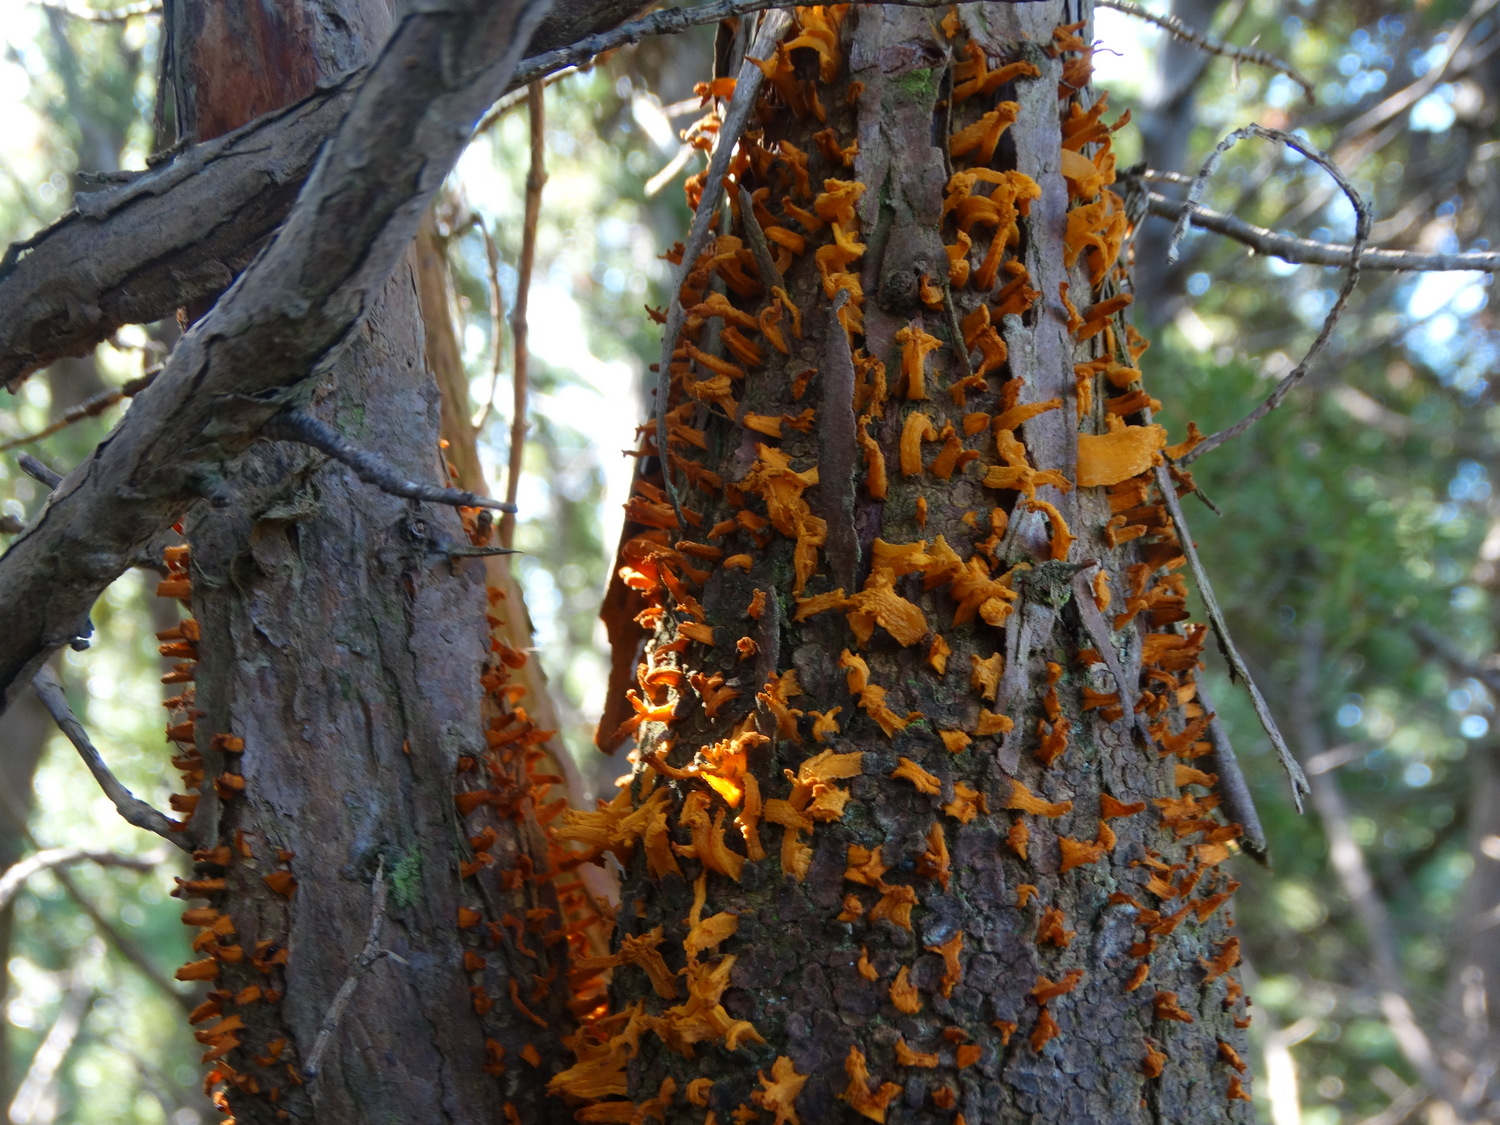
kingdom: Fungi
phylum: Basidiomycota
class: Pucciniomycetes
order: Pucciniales
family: Gymnosporangiaceae
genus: Gymnosporangium
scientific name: Gymnosporangium clavariiforme
